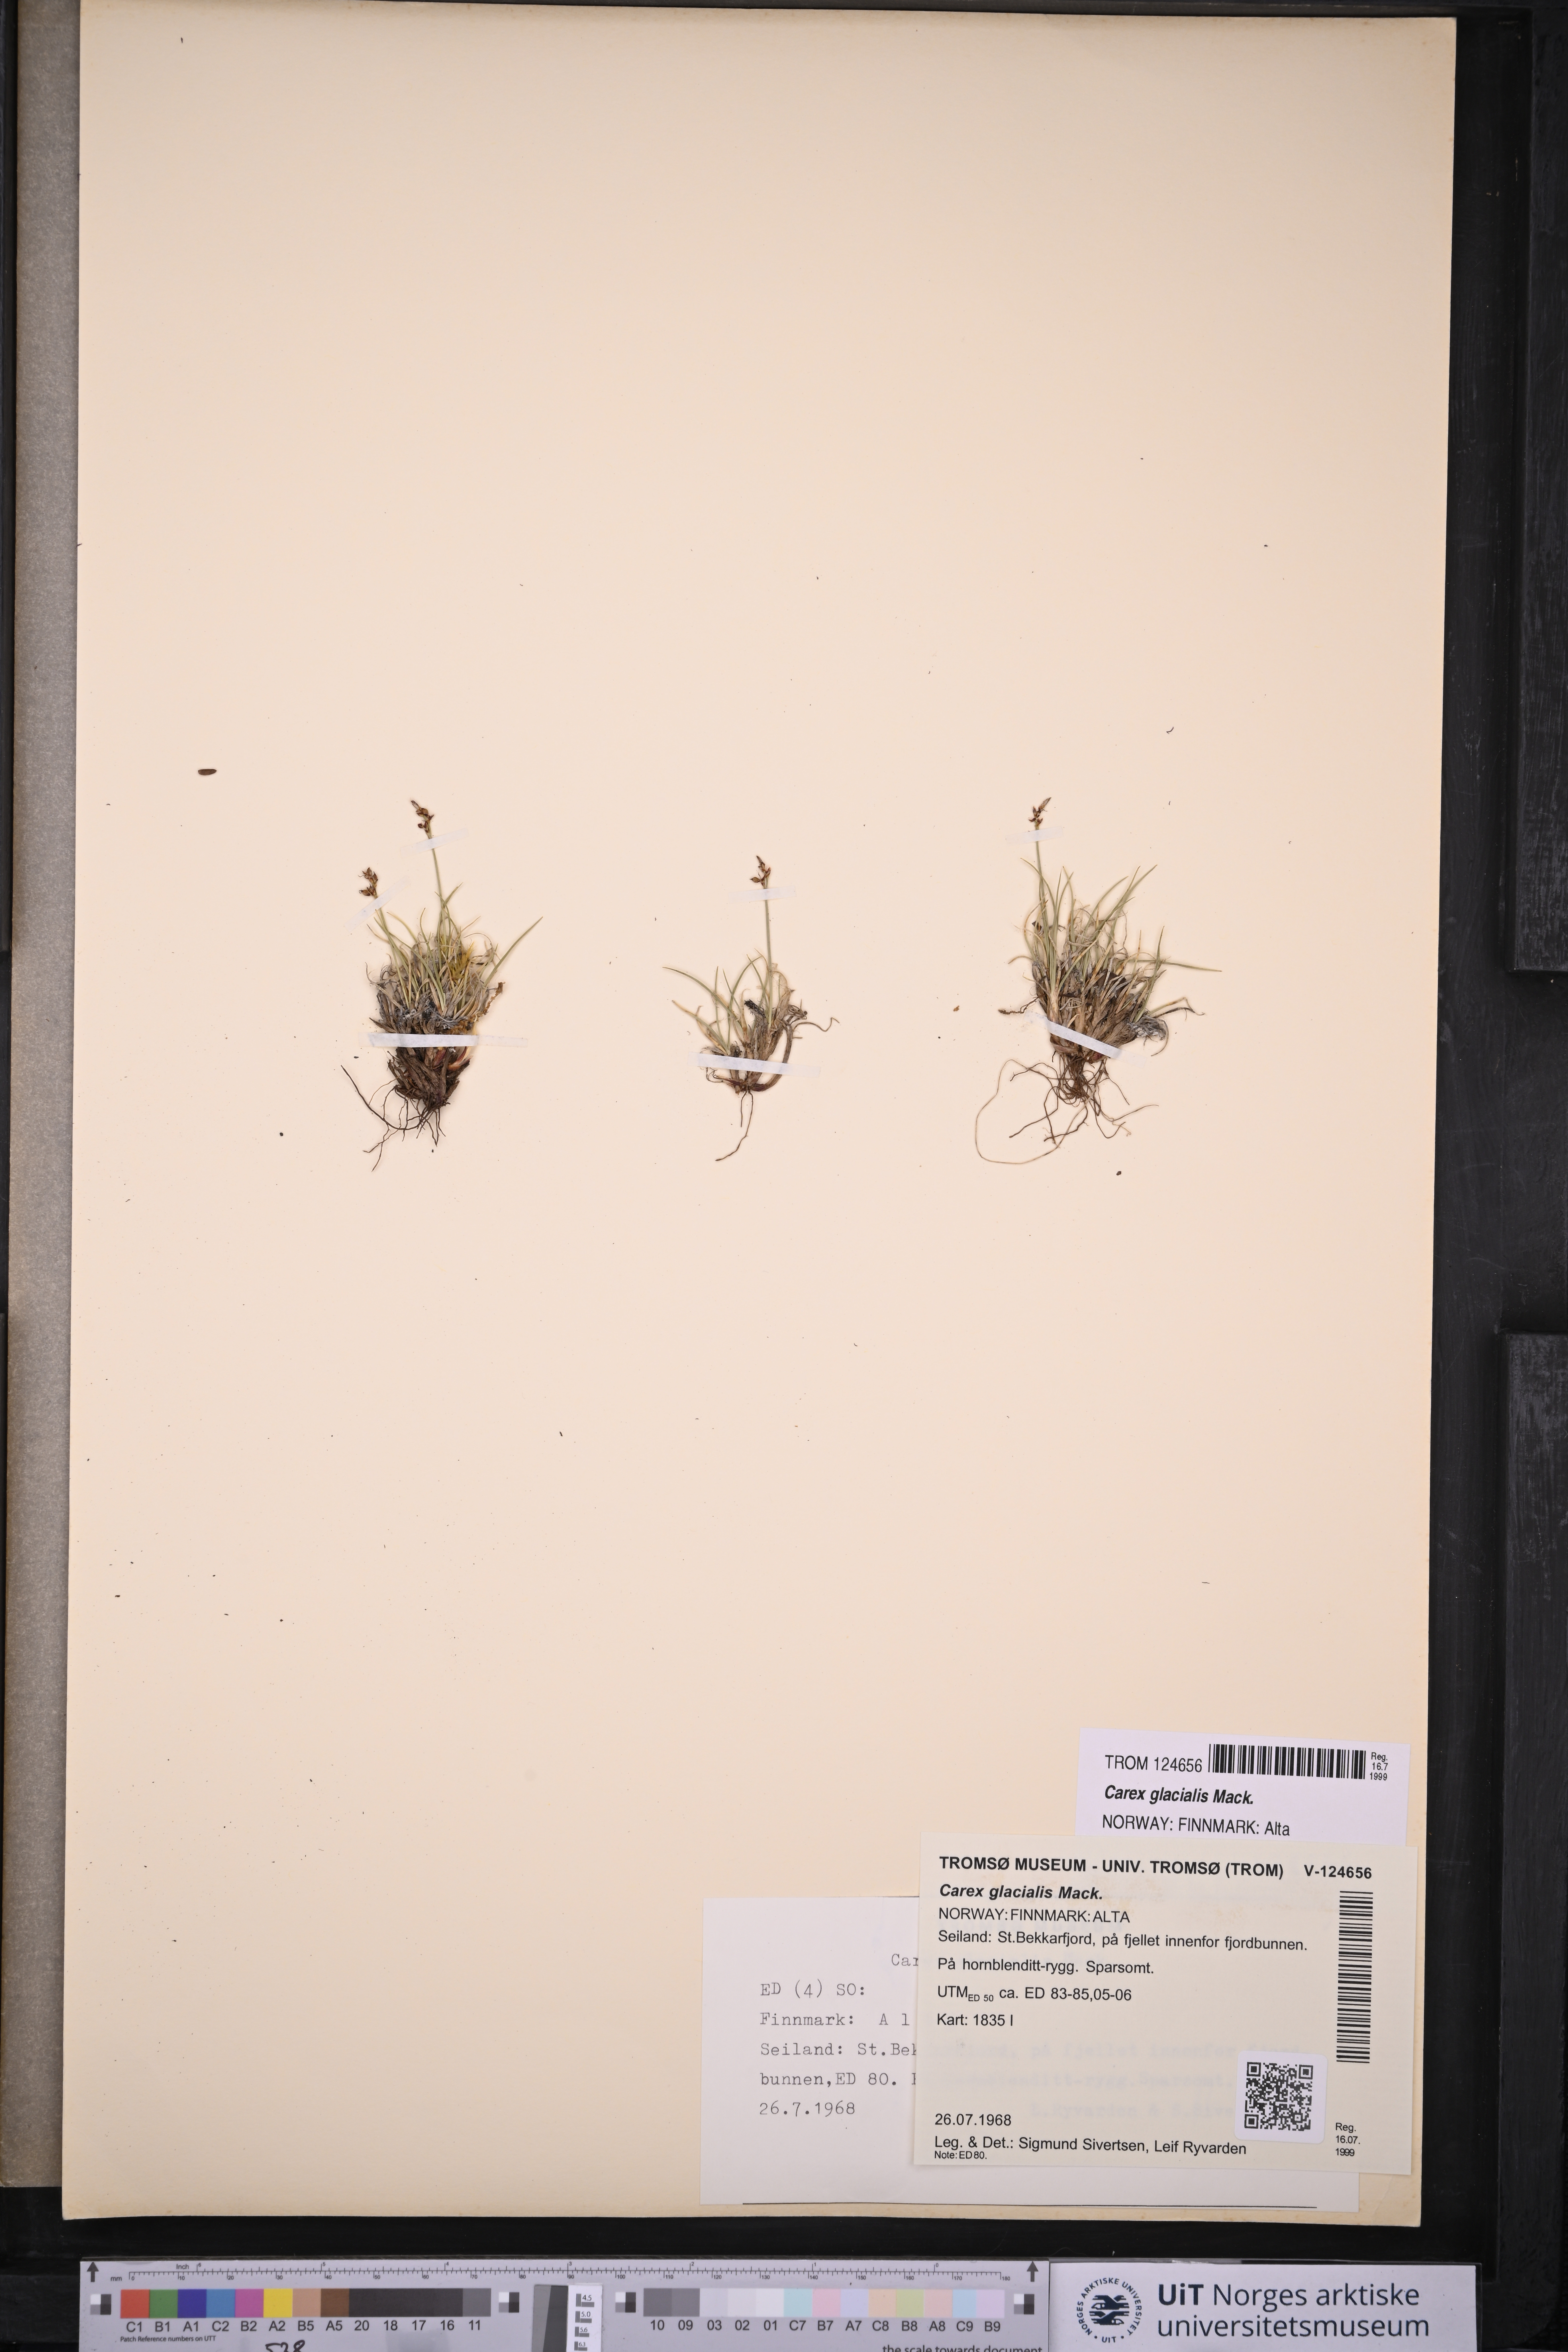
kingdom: Plantae
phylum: Tracheophyta
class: Liliopsida
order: Poales
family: Cyperaceae
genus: Carex
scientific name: Carex glacialis
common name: Newfoundland sedge
